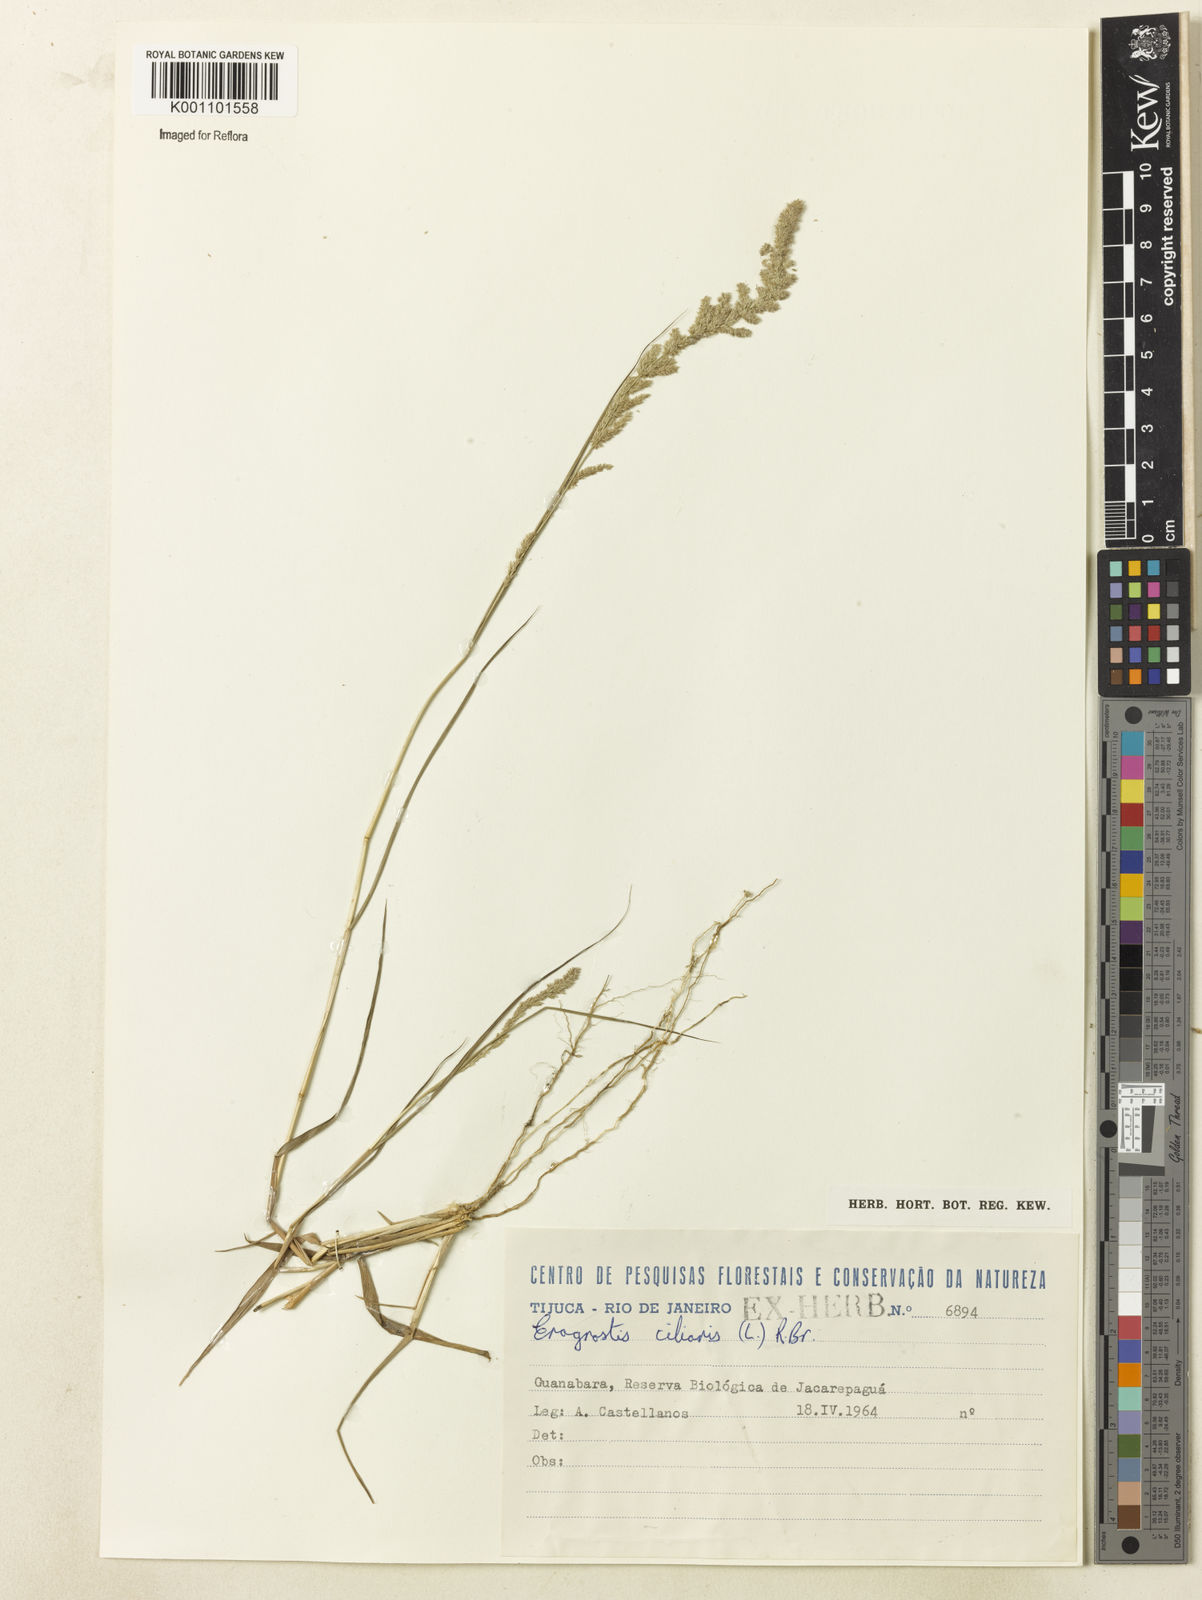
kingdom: Plantae
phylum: Tracheophyta
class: Liliopsida
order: Poales
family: Poaceae
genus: Eragrostis
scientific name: Eragrostis ciliaris
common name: Gophertail lovegrass
